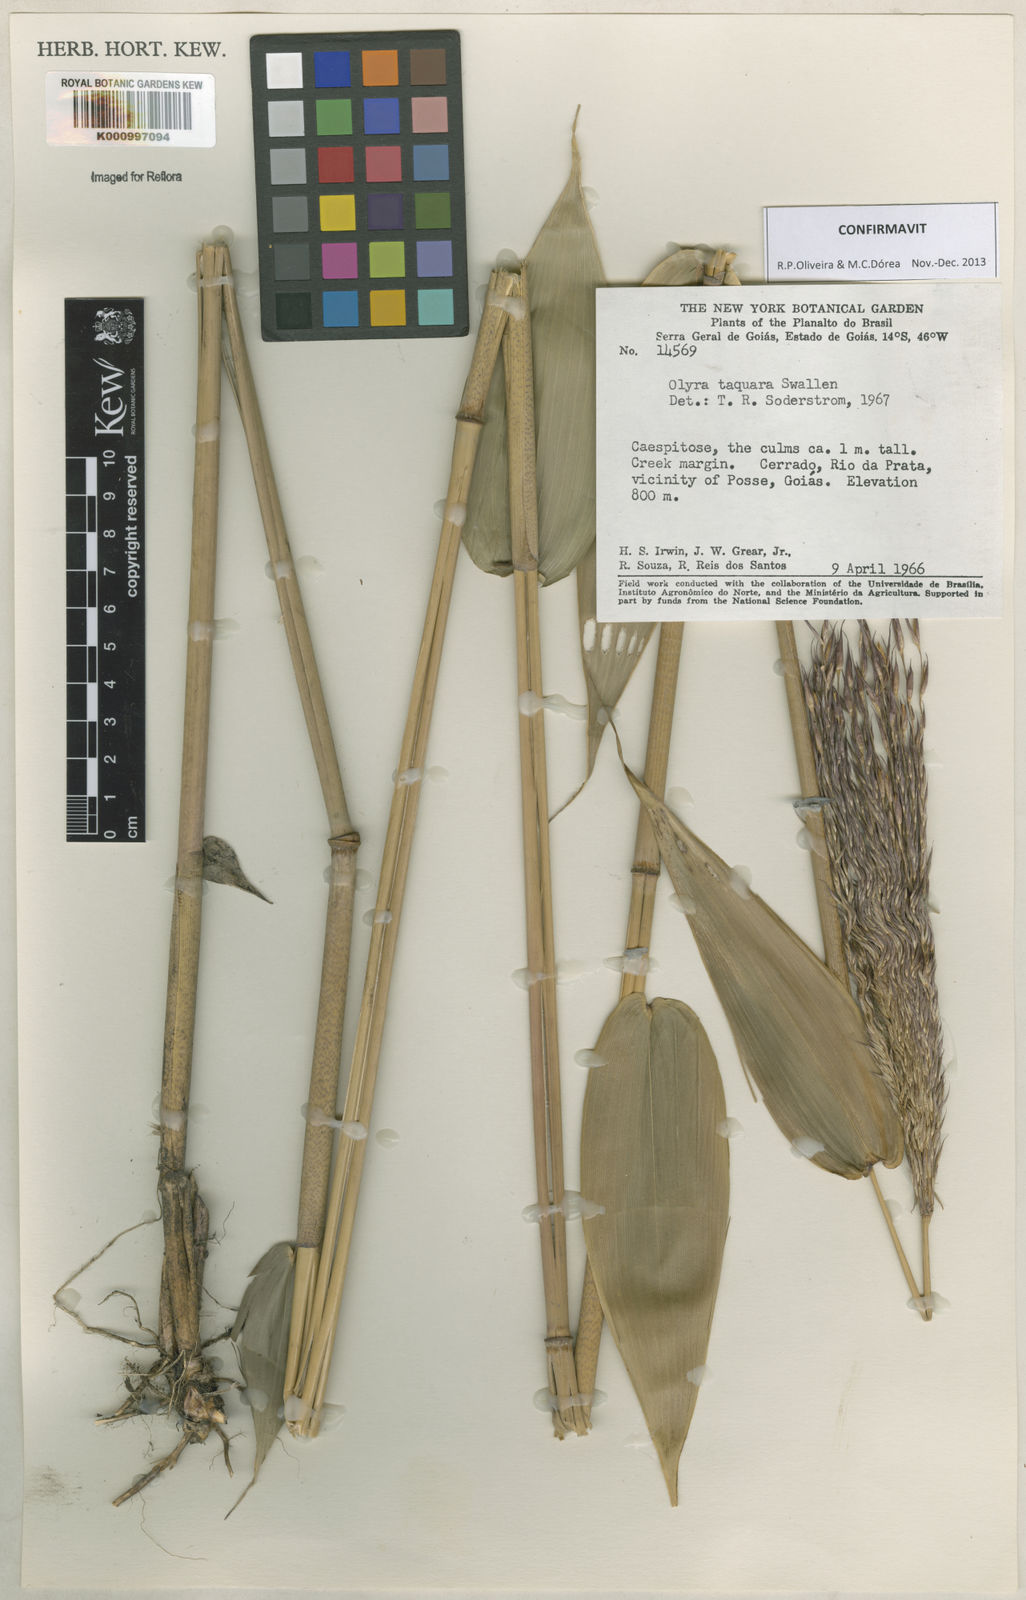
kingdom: Plantae
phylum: Tracheophyta
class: Liliopsida
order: Poales
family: Poaceae
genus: Olyra
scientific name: Olyra taquara
